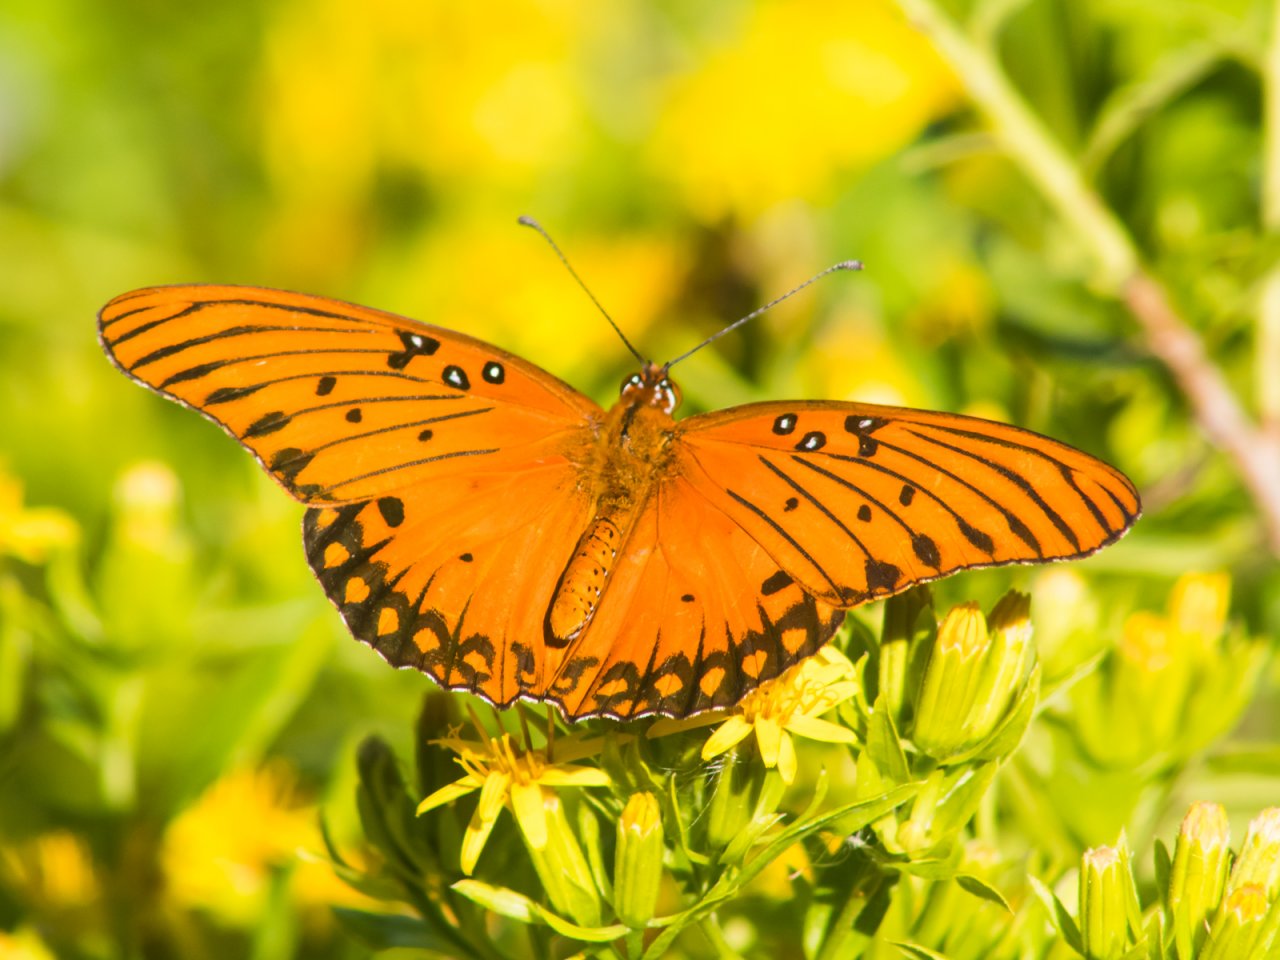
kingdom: Animalia
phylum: Arthropoda
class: Insecta
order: Lepidoptera
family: Nymphalidae
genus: Dione
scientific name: Dione vanillae
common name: Gulf Fritillary
